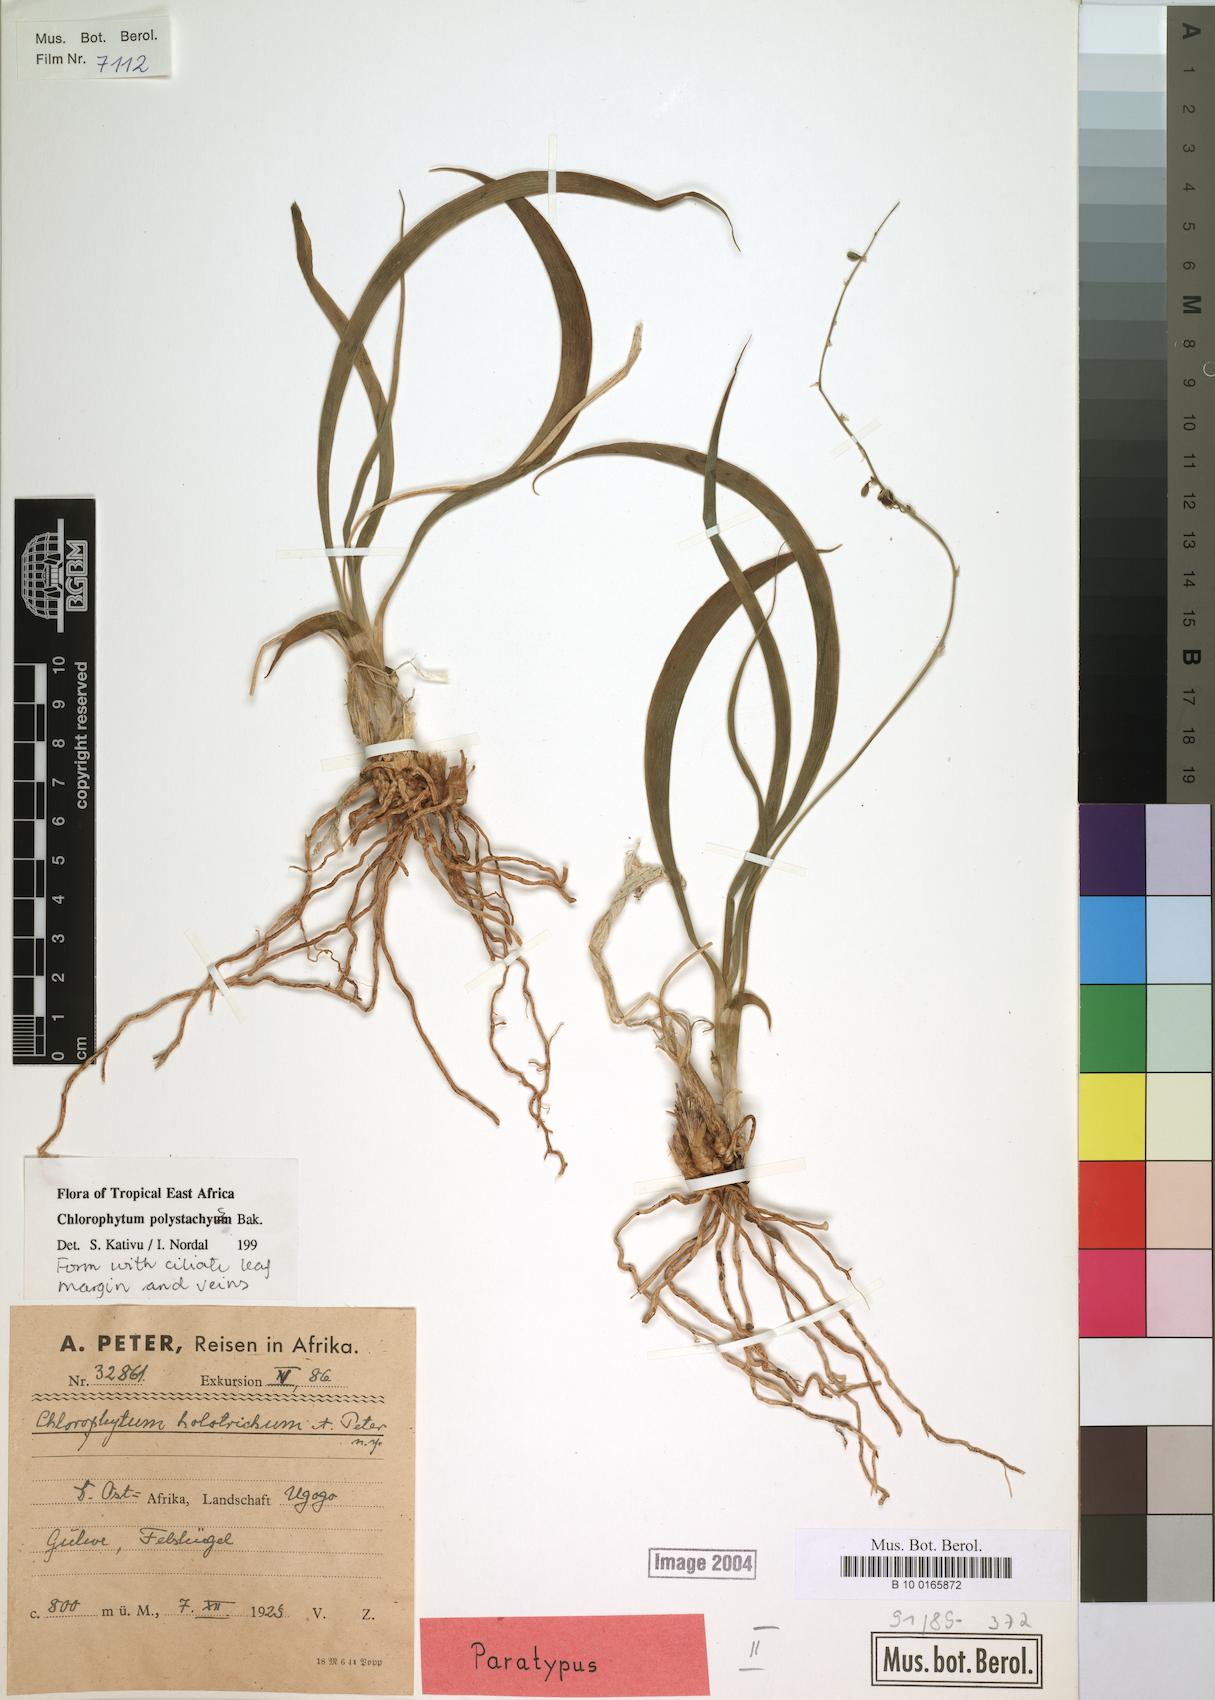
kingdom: Plantae
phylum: Tracheophyta
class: Liliopsida
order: Asparagales
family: Asparagaceae
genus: Chlorophytum
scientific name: Chlorophytum polystachys
